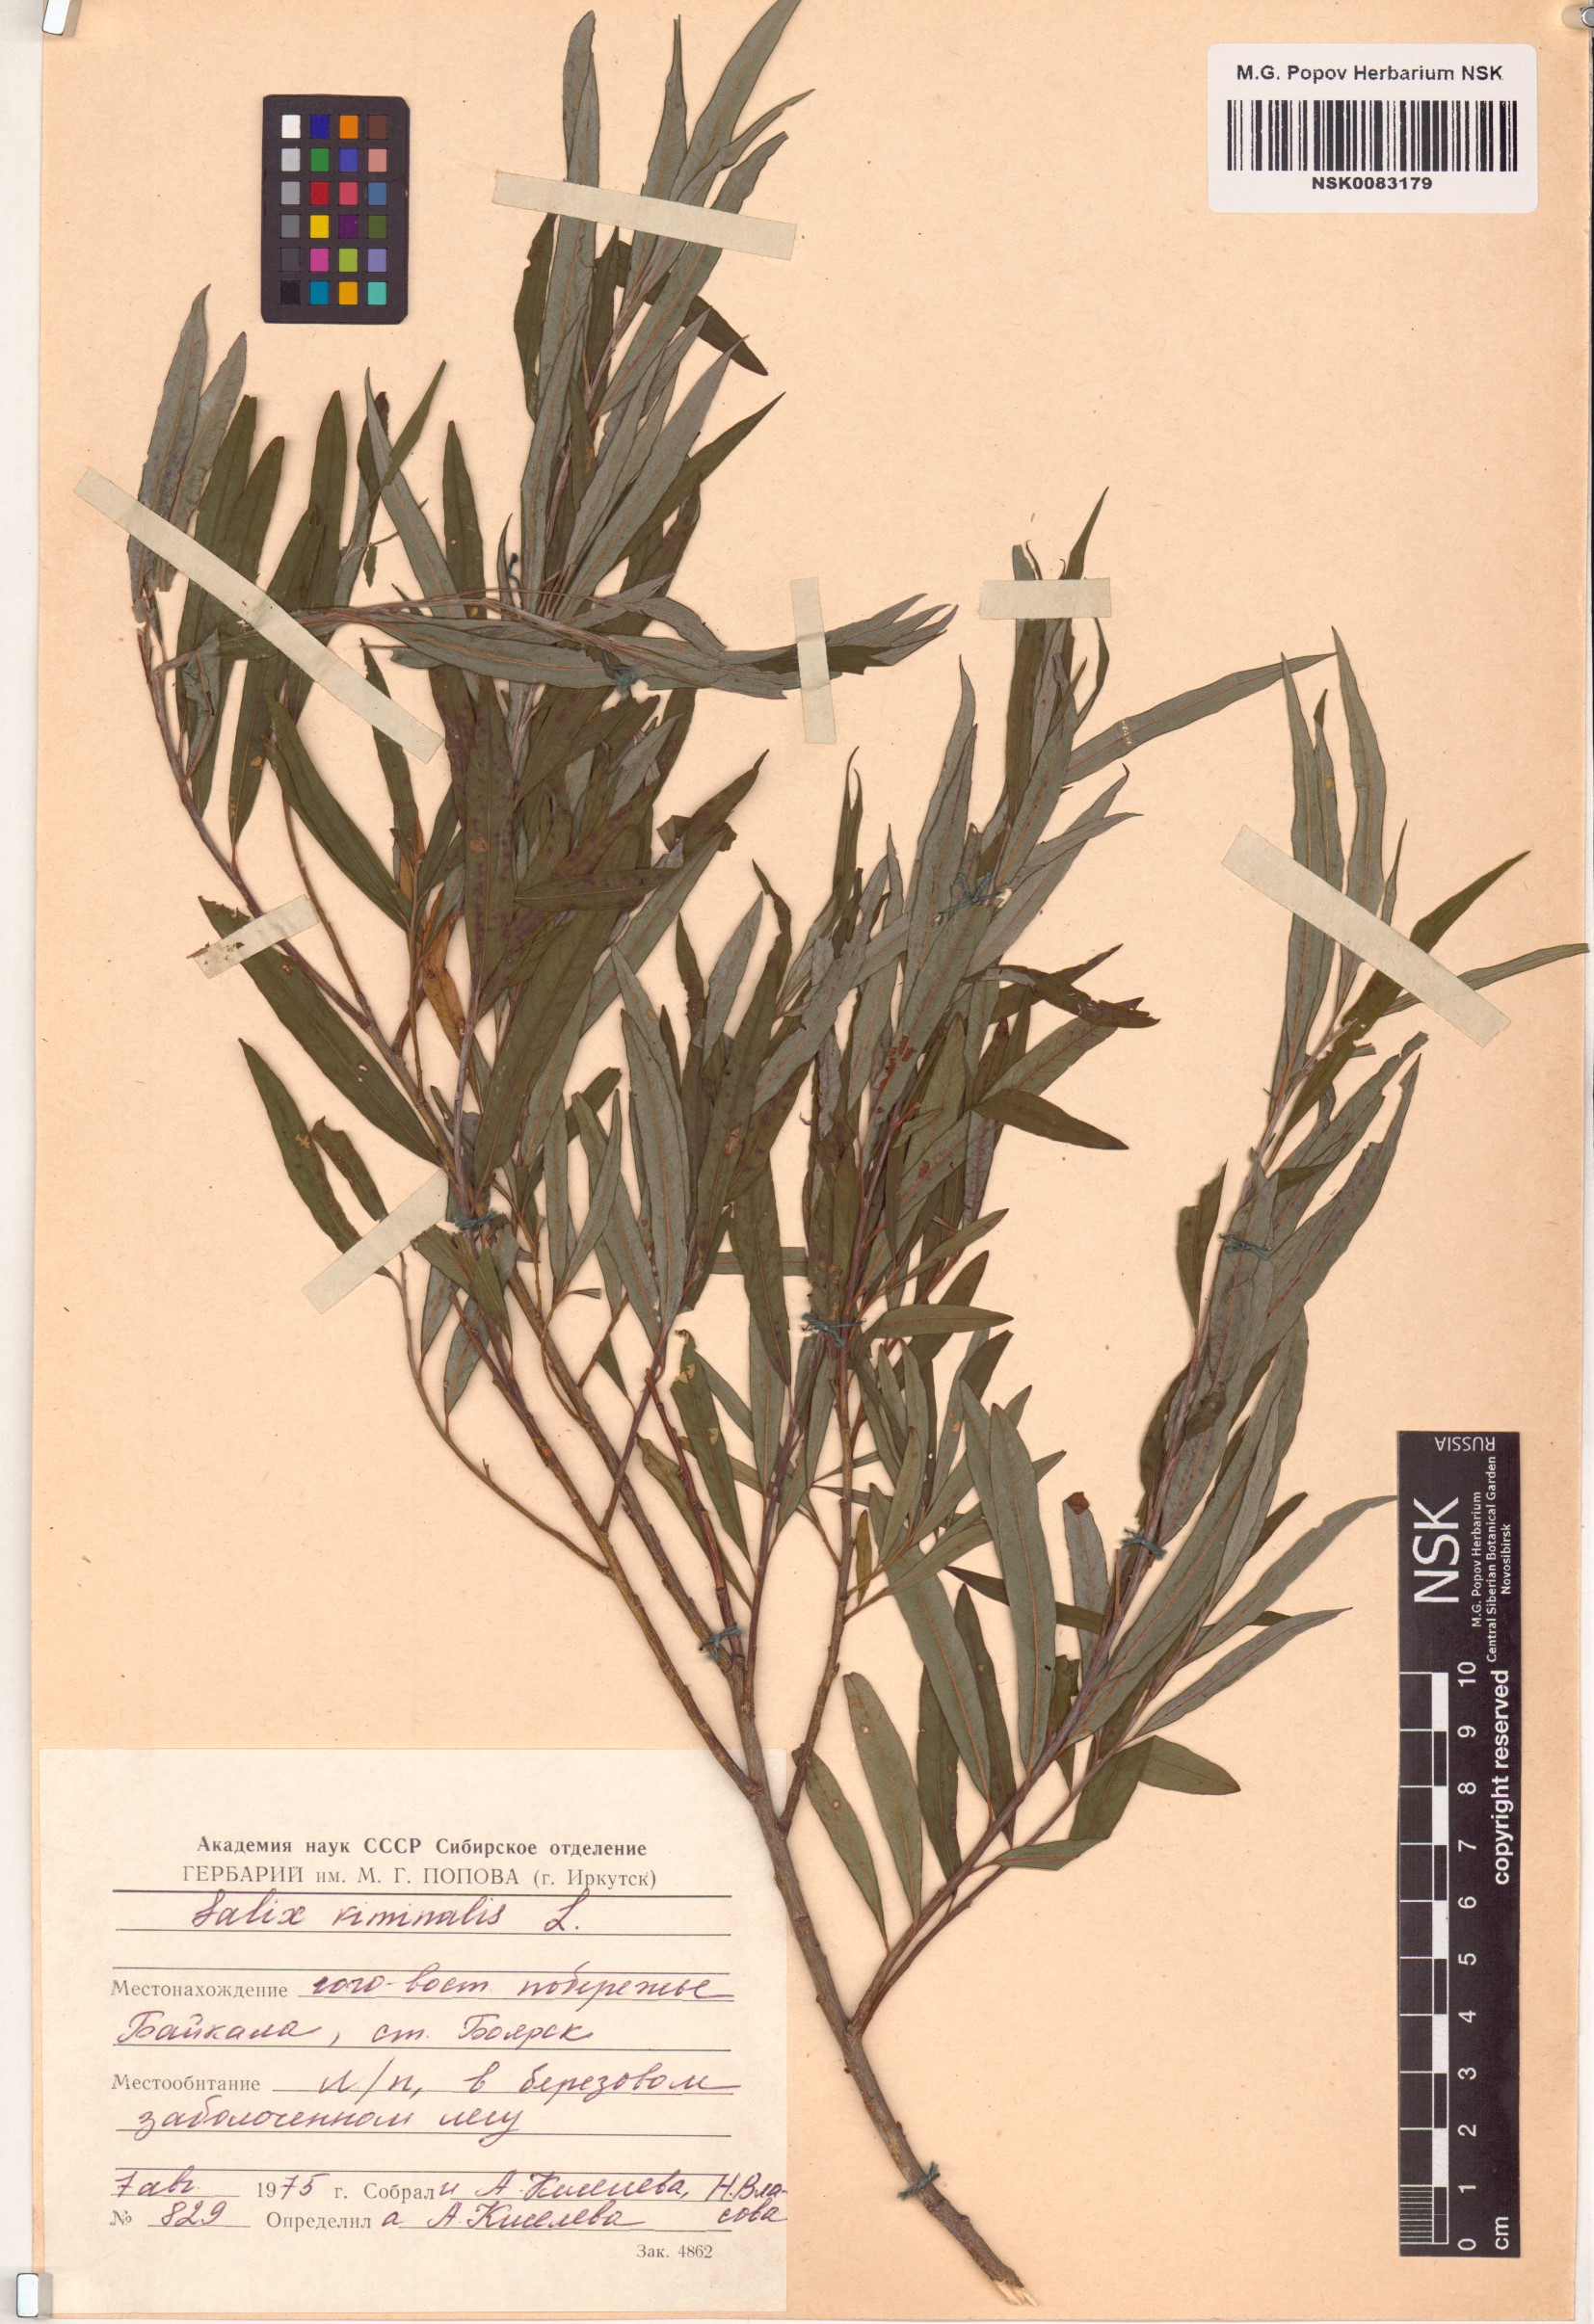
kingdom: Plantae
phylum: Tracheophyta
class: Magnoliopsida
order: Malpighiales
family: Salicaceae
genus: Salix
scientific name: Salix viminalis
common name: Osier
